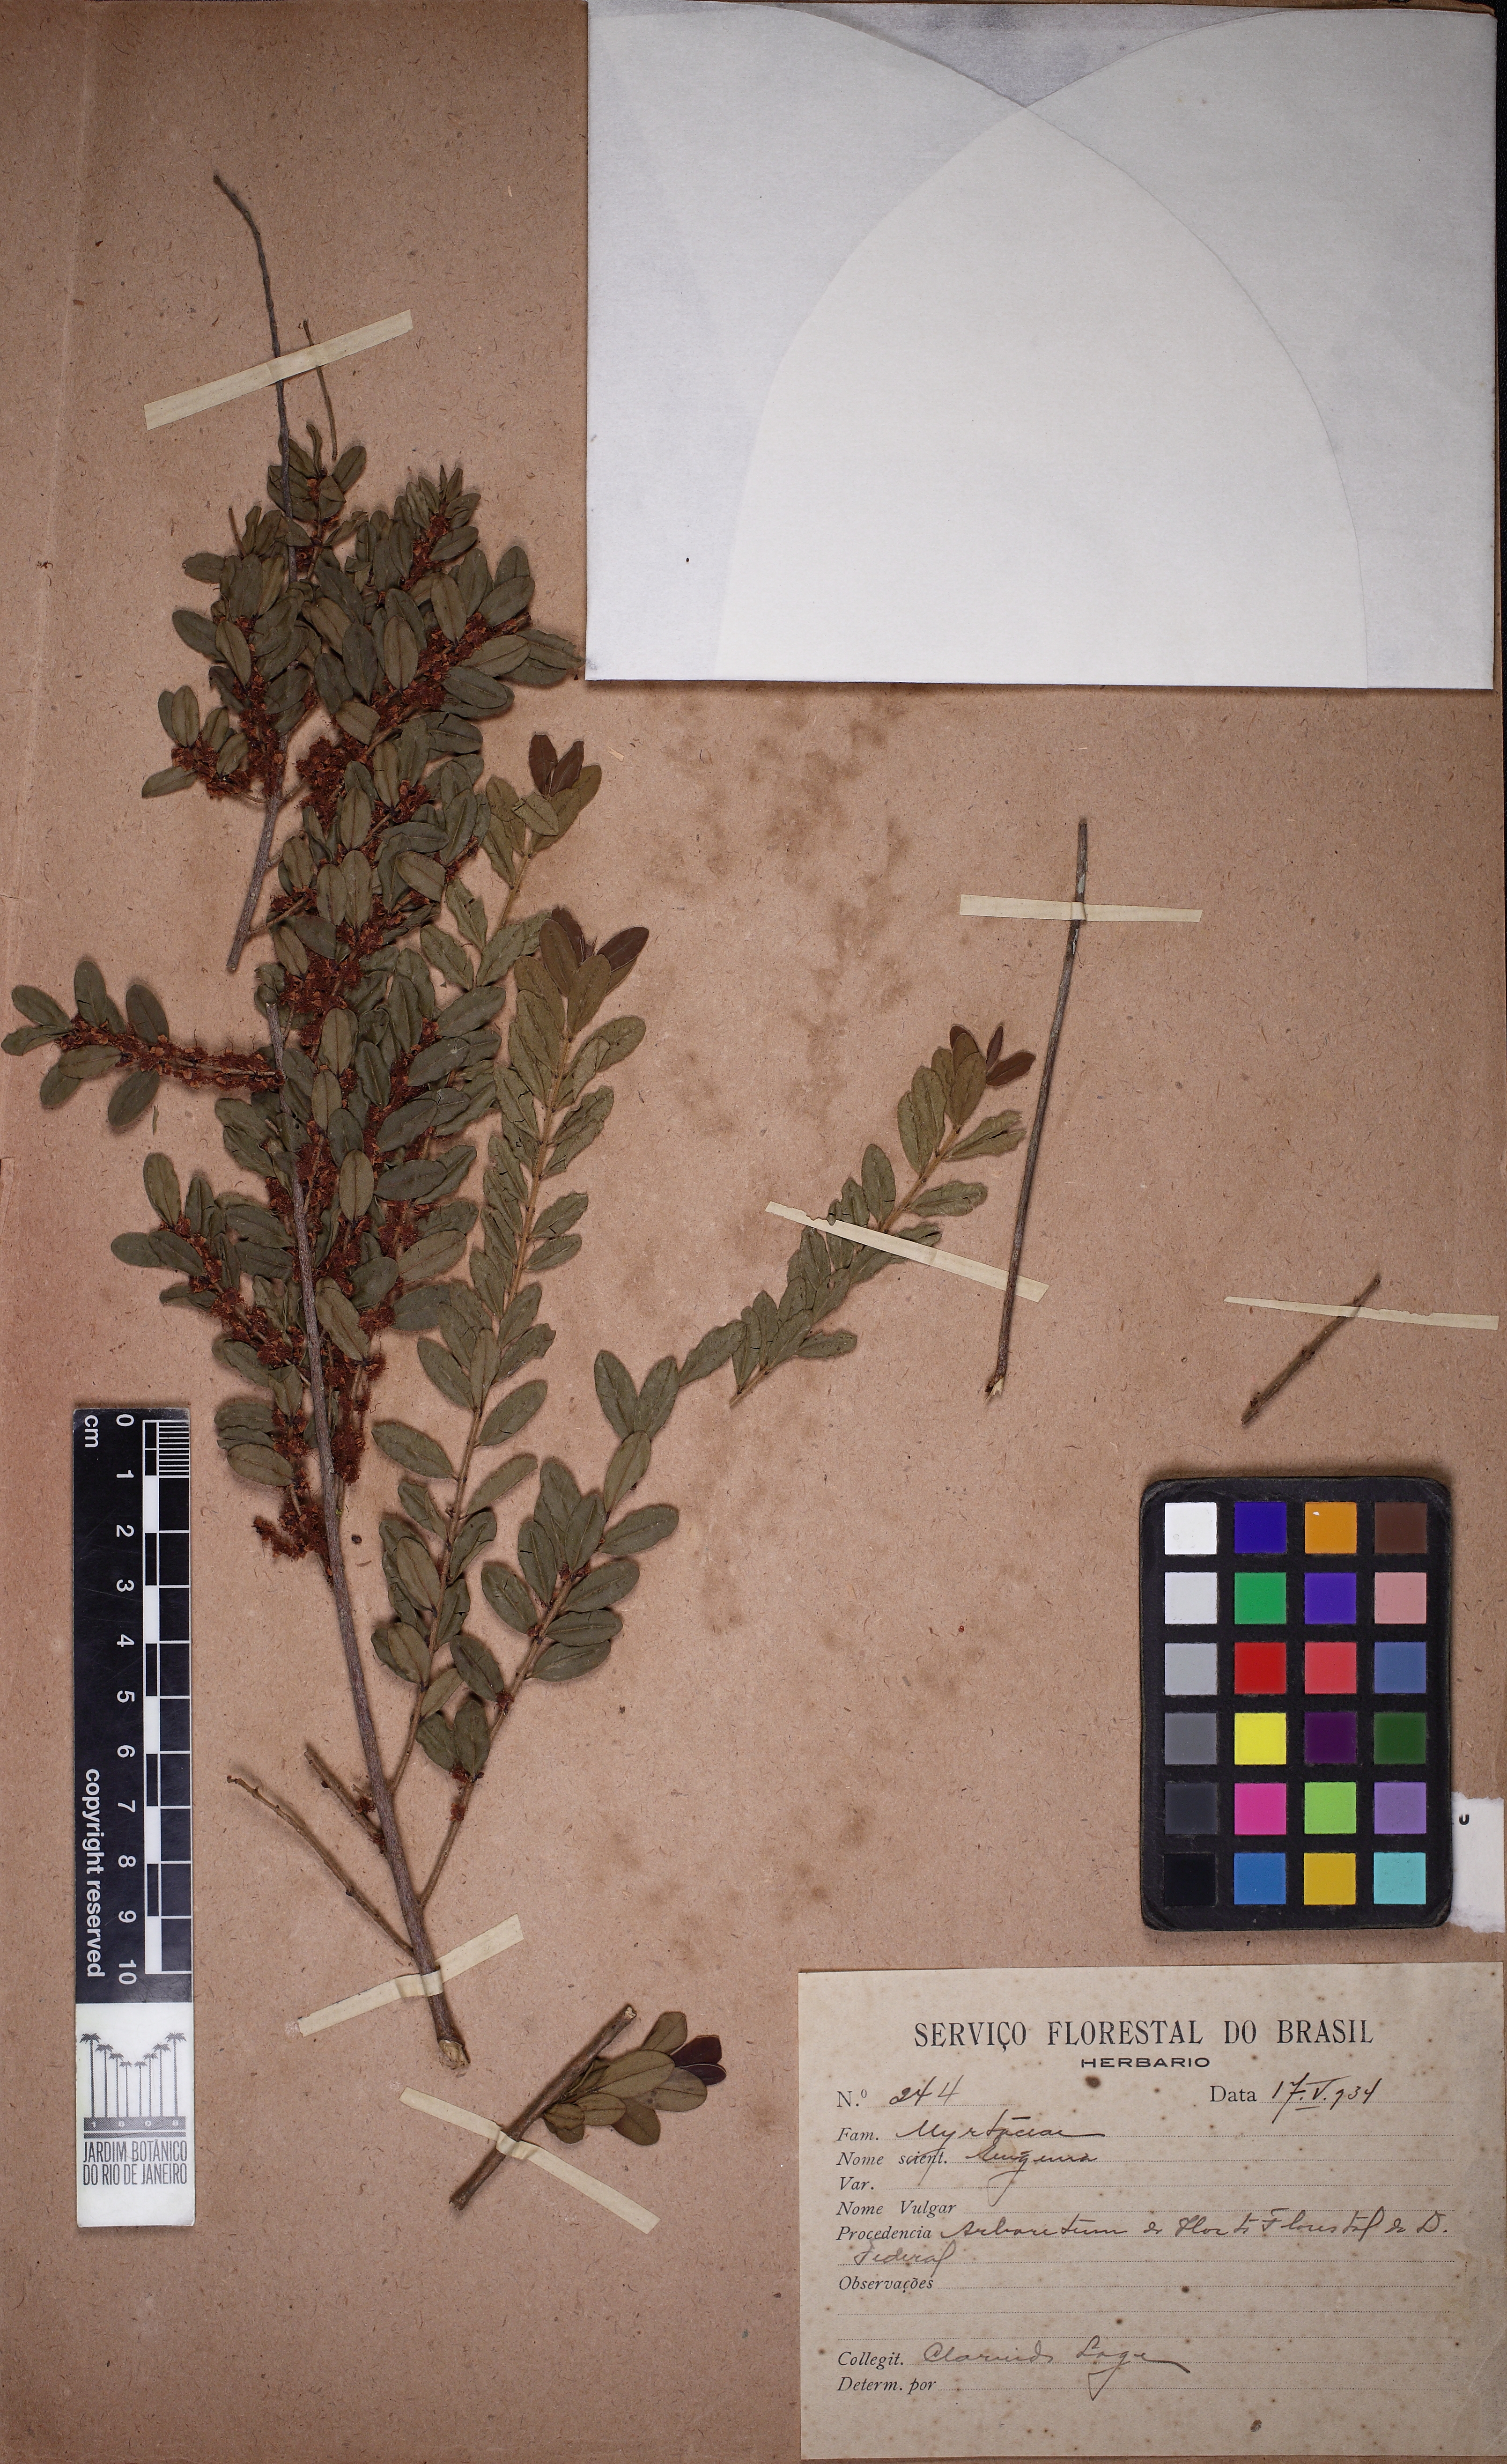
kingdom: Plantae
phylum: Tracheophyta
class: Magnoliopsida
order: Myrtales
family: Myrtaceae
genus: Myrciaria
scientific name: Myrciaria tenella
